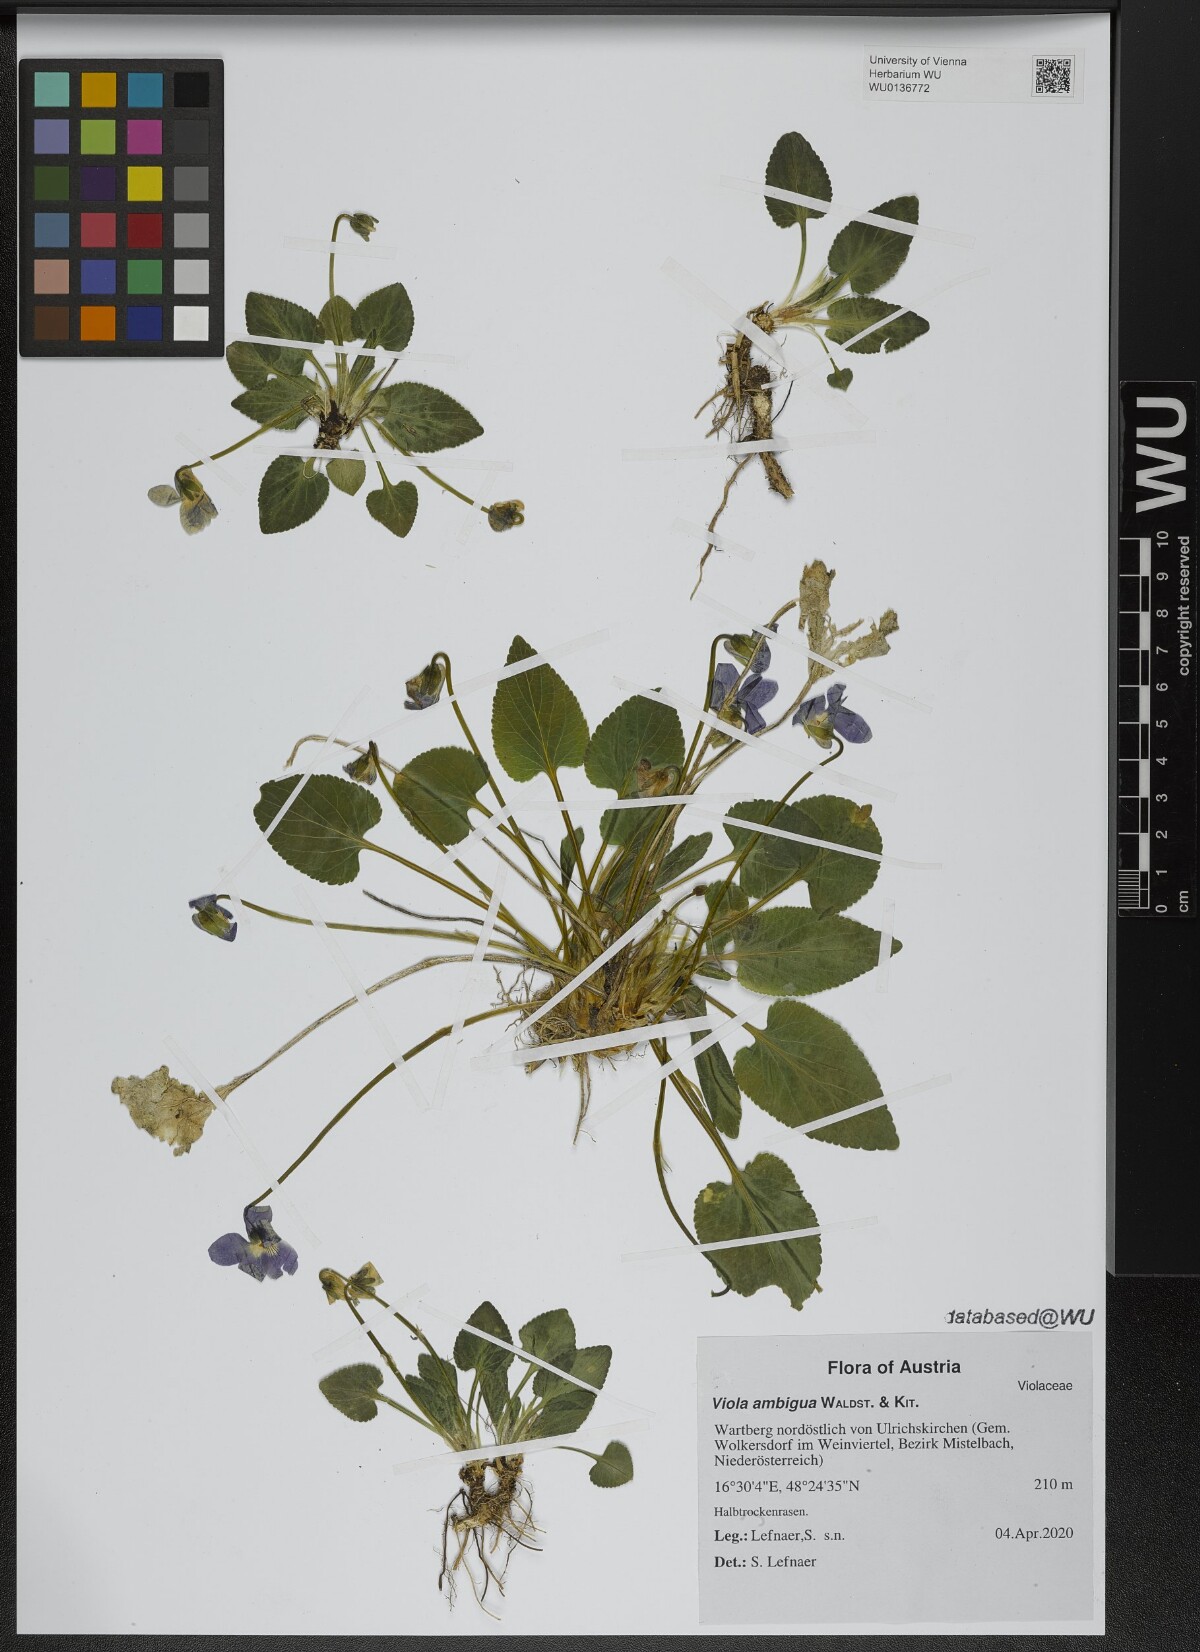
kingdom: Plantae
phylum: Tracheophyta
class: Magnoliopsida
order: Malpighiales
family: Violaceae
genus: Viola
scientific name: Viola ambigua
